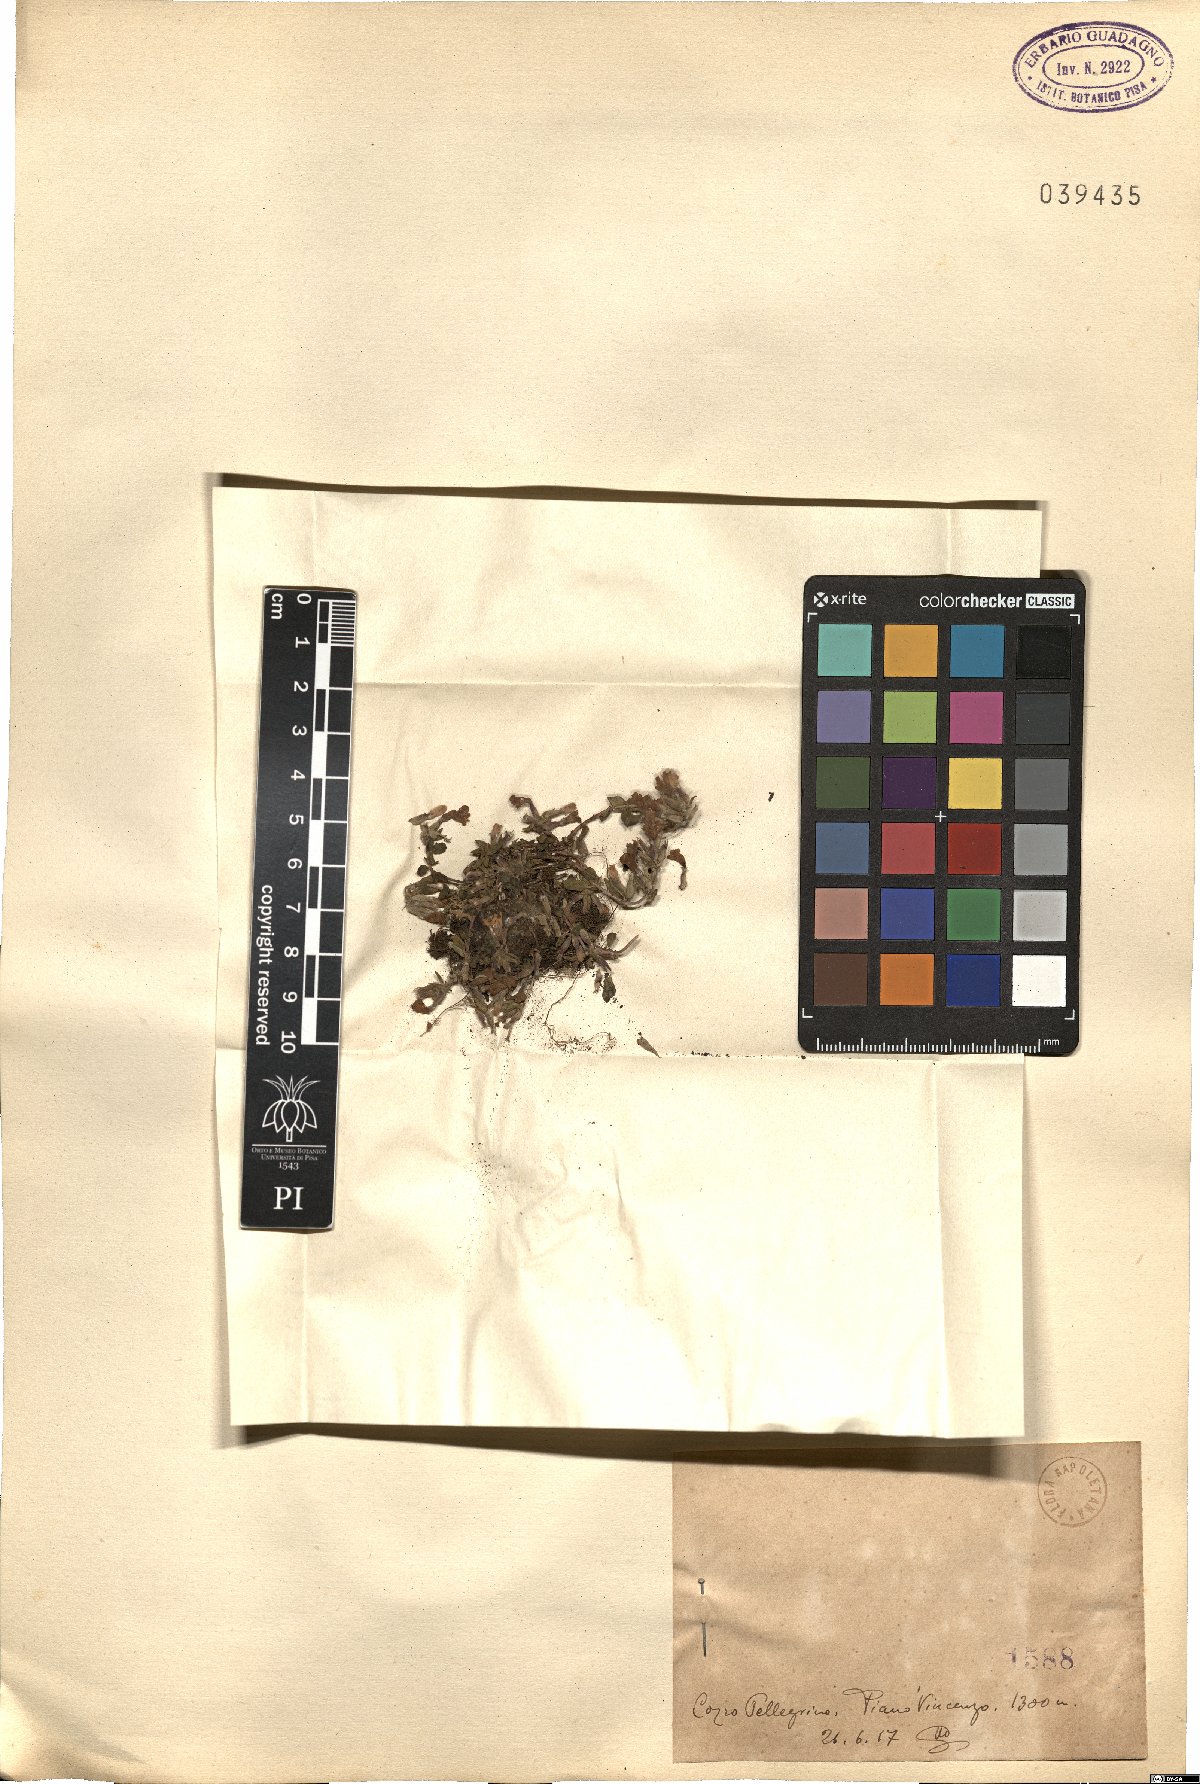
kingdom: Plantae
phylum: Tracheophyta
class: Magnoliopsida
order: Lamiales
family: Lamiaceae
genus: Calamintha
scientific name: Calamintha
